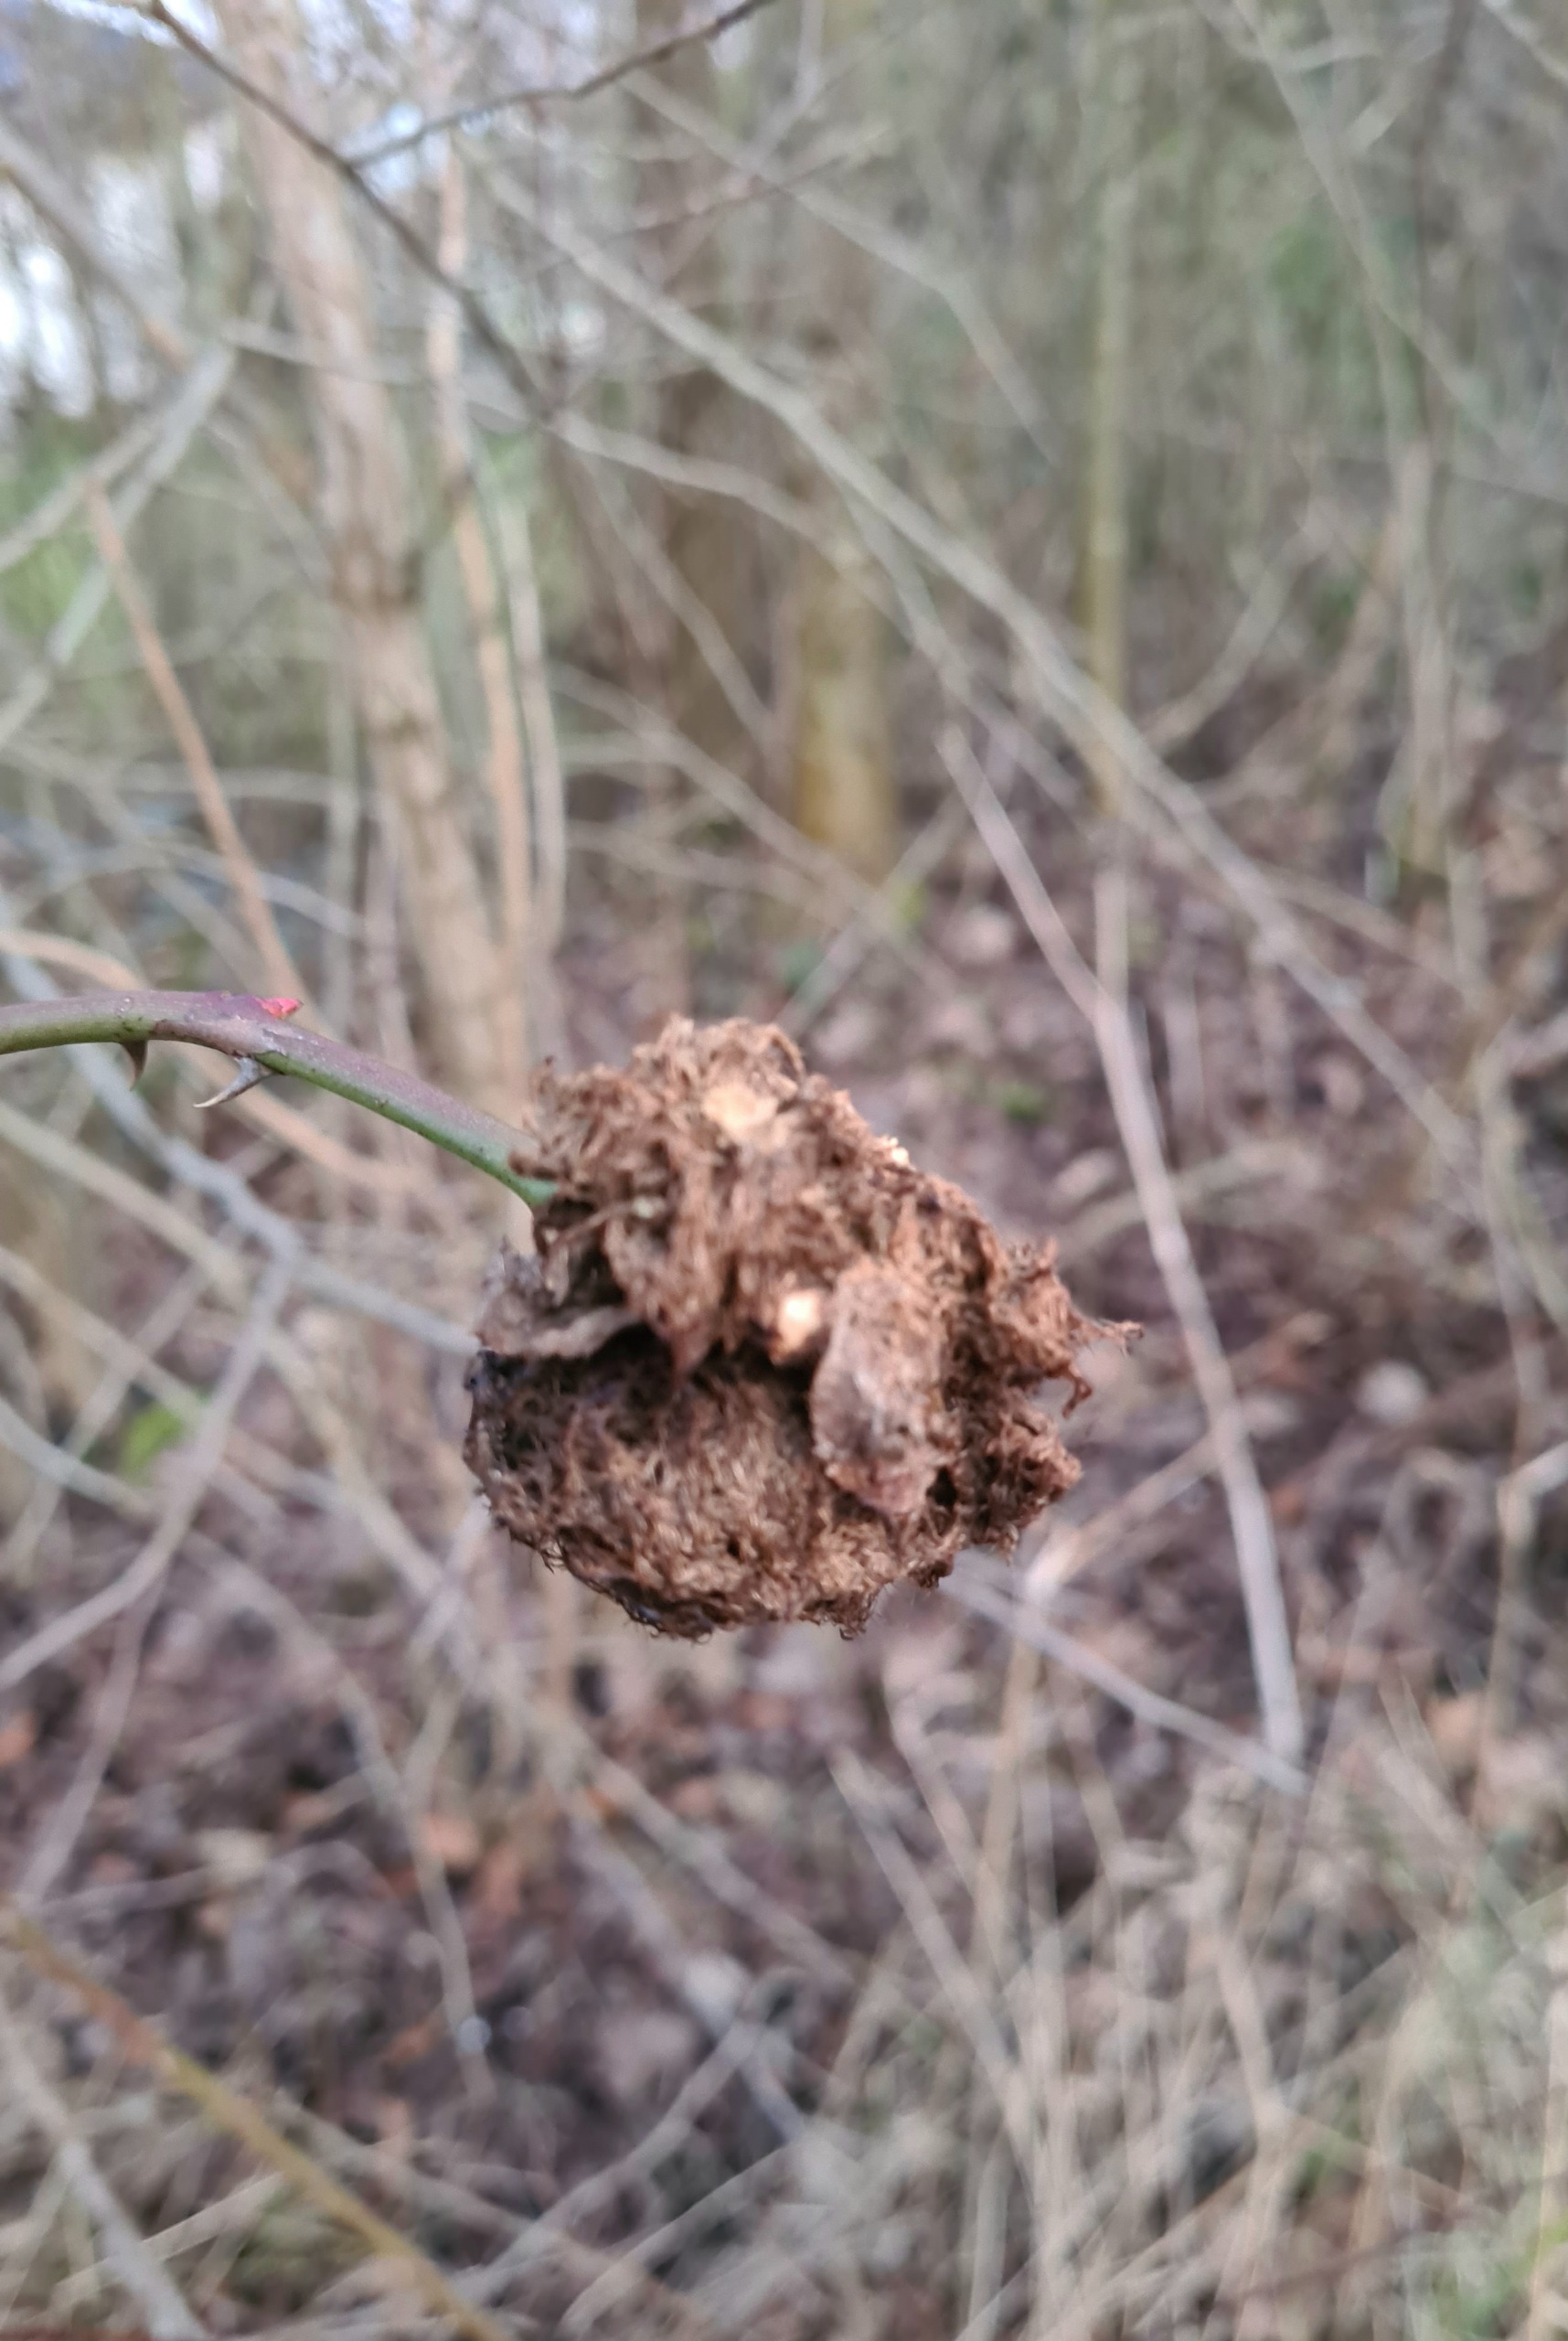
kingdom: Animalia
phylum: Arthropoda
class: Insecta
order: Hymenoptera
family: Cynipidae
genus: Diplolepis
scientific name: Diplolepis rosae
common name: Bedeguargalhveps
